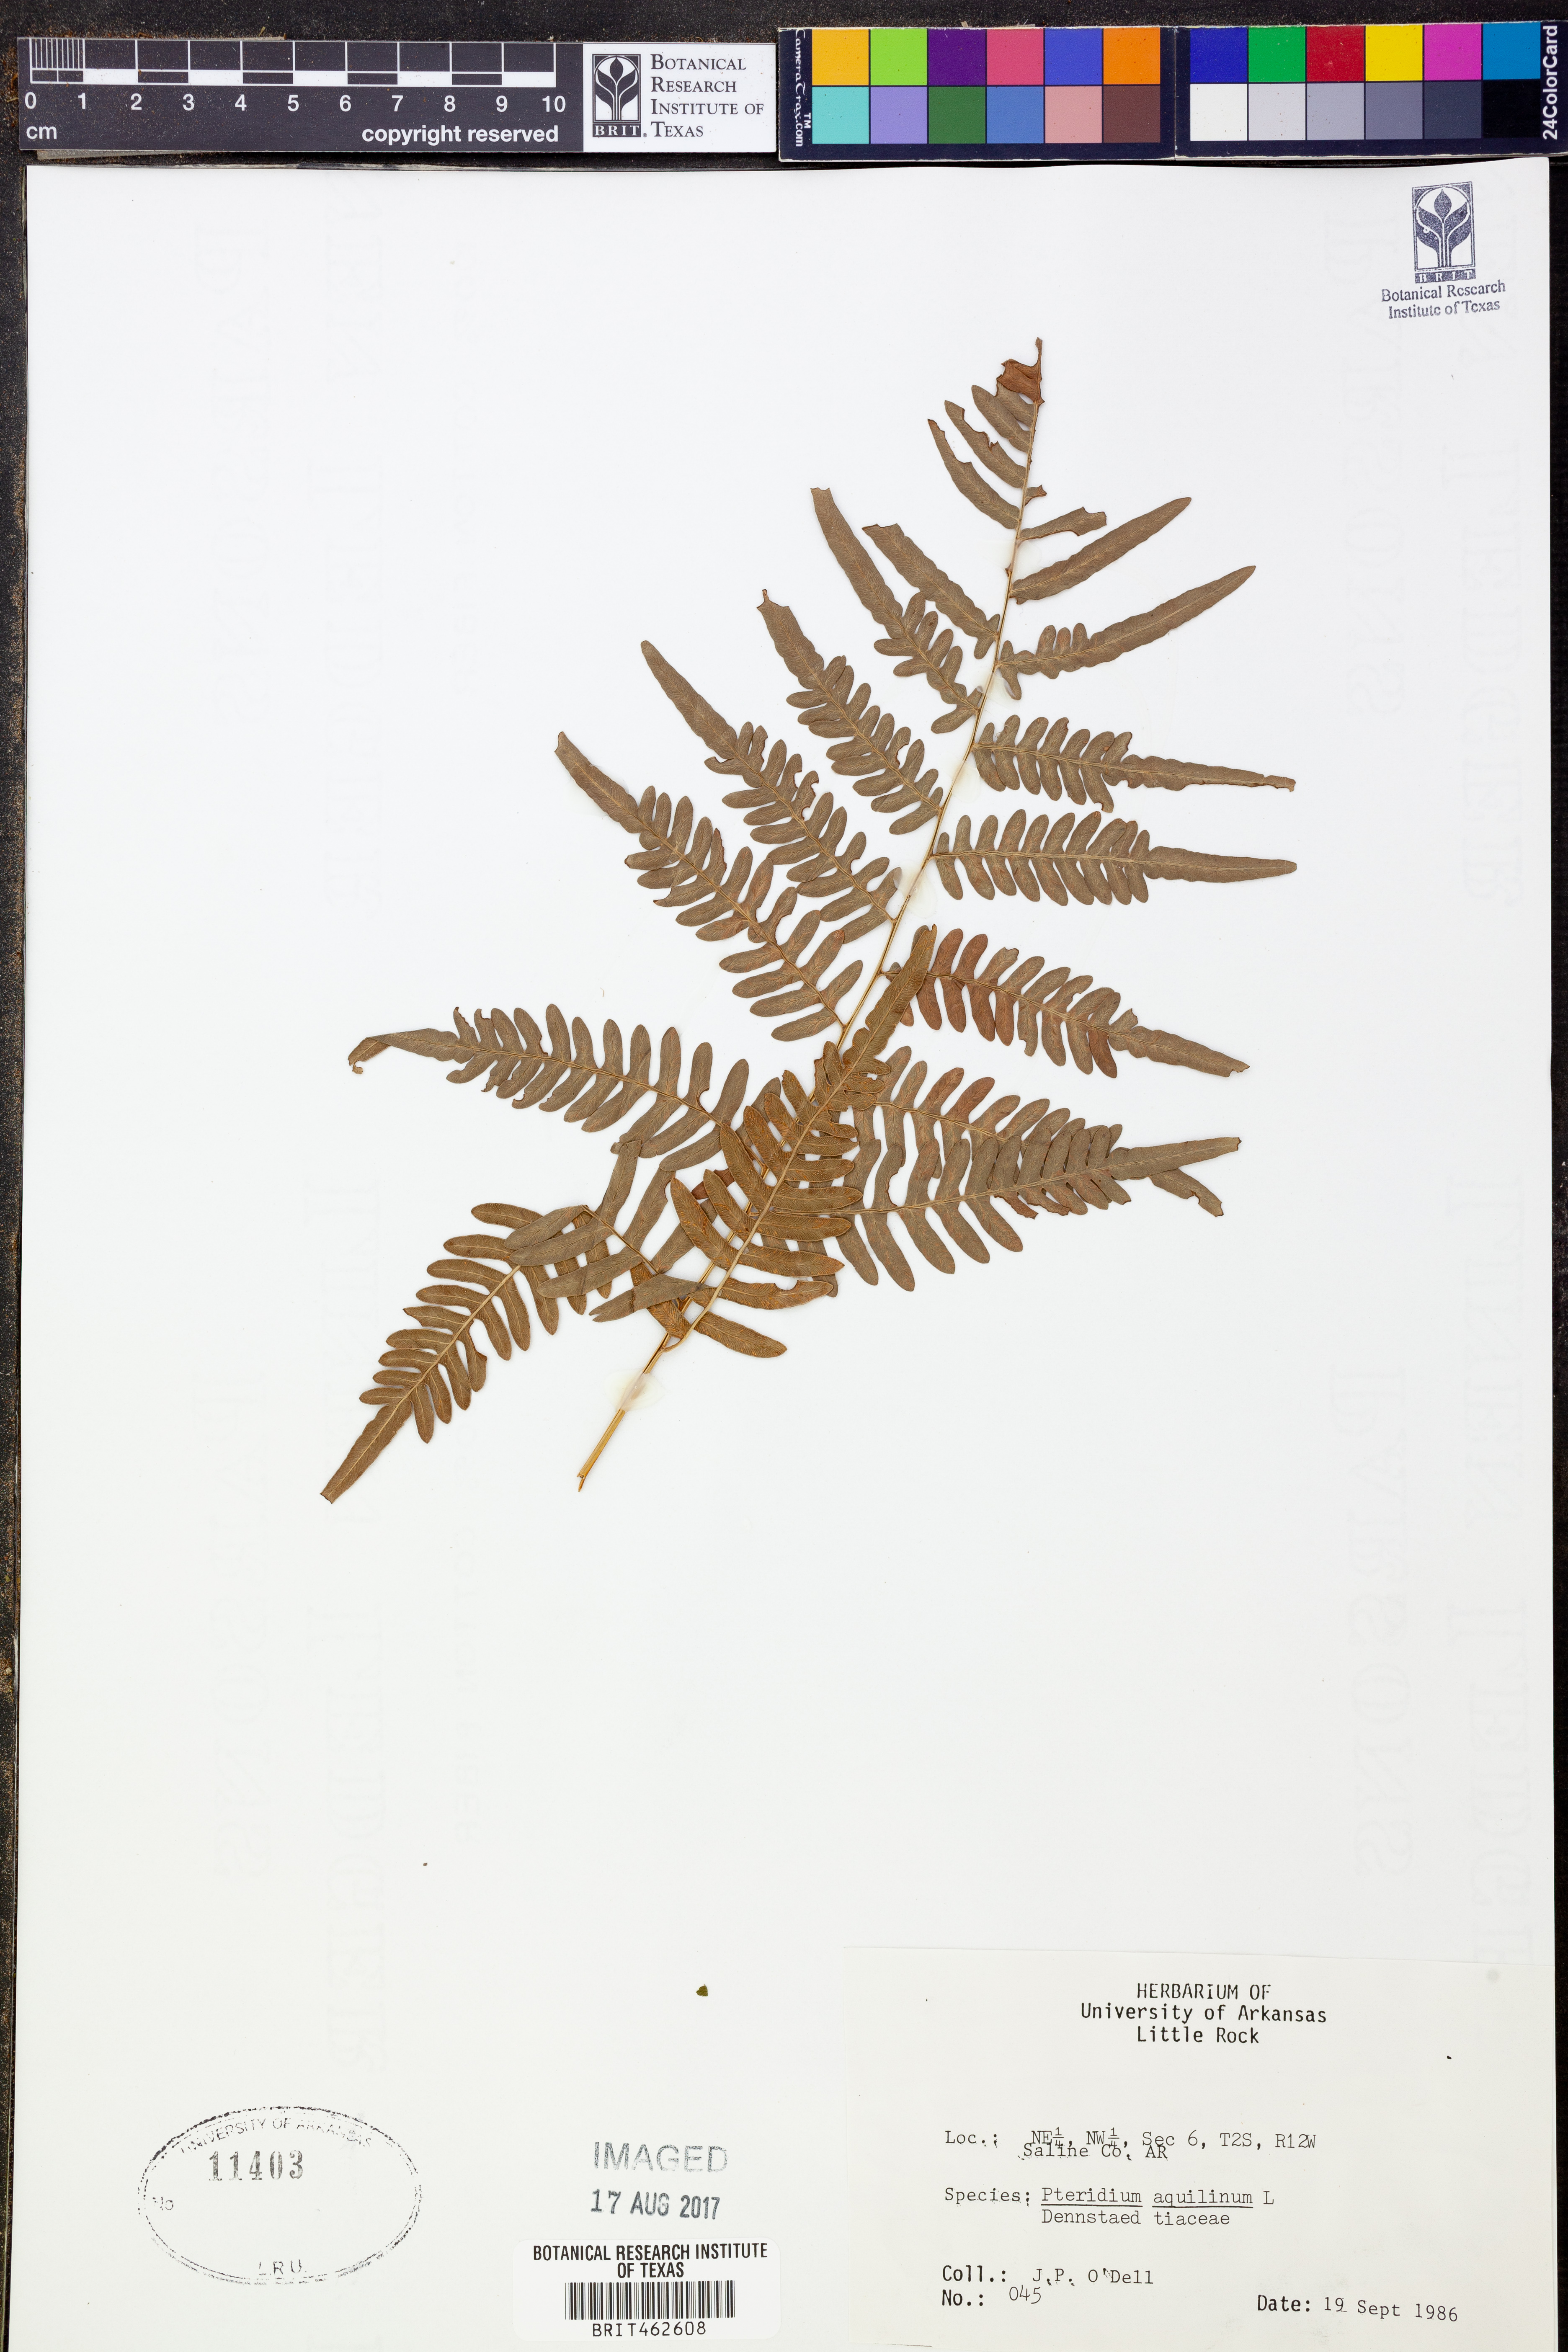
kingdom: Plantae
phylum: Tracheophyta
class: Polypodiopsida
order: Polypodiales
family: Dennstaedtiaceae
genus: Pteridium
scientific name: Pteridium aquilinum
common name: Bracken
